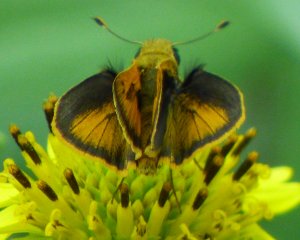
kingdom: Animalia
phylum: Arthropoda
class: Insecta
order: Lepidoptera
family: Hesperiidae
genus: Polites
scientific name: Polites vibex
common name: Whirlabout
